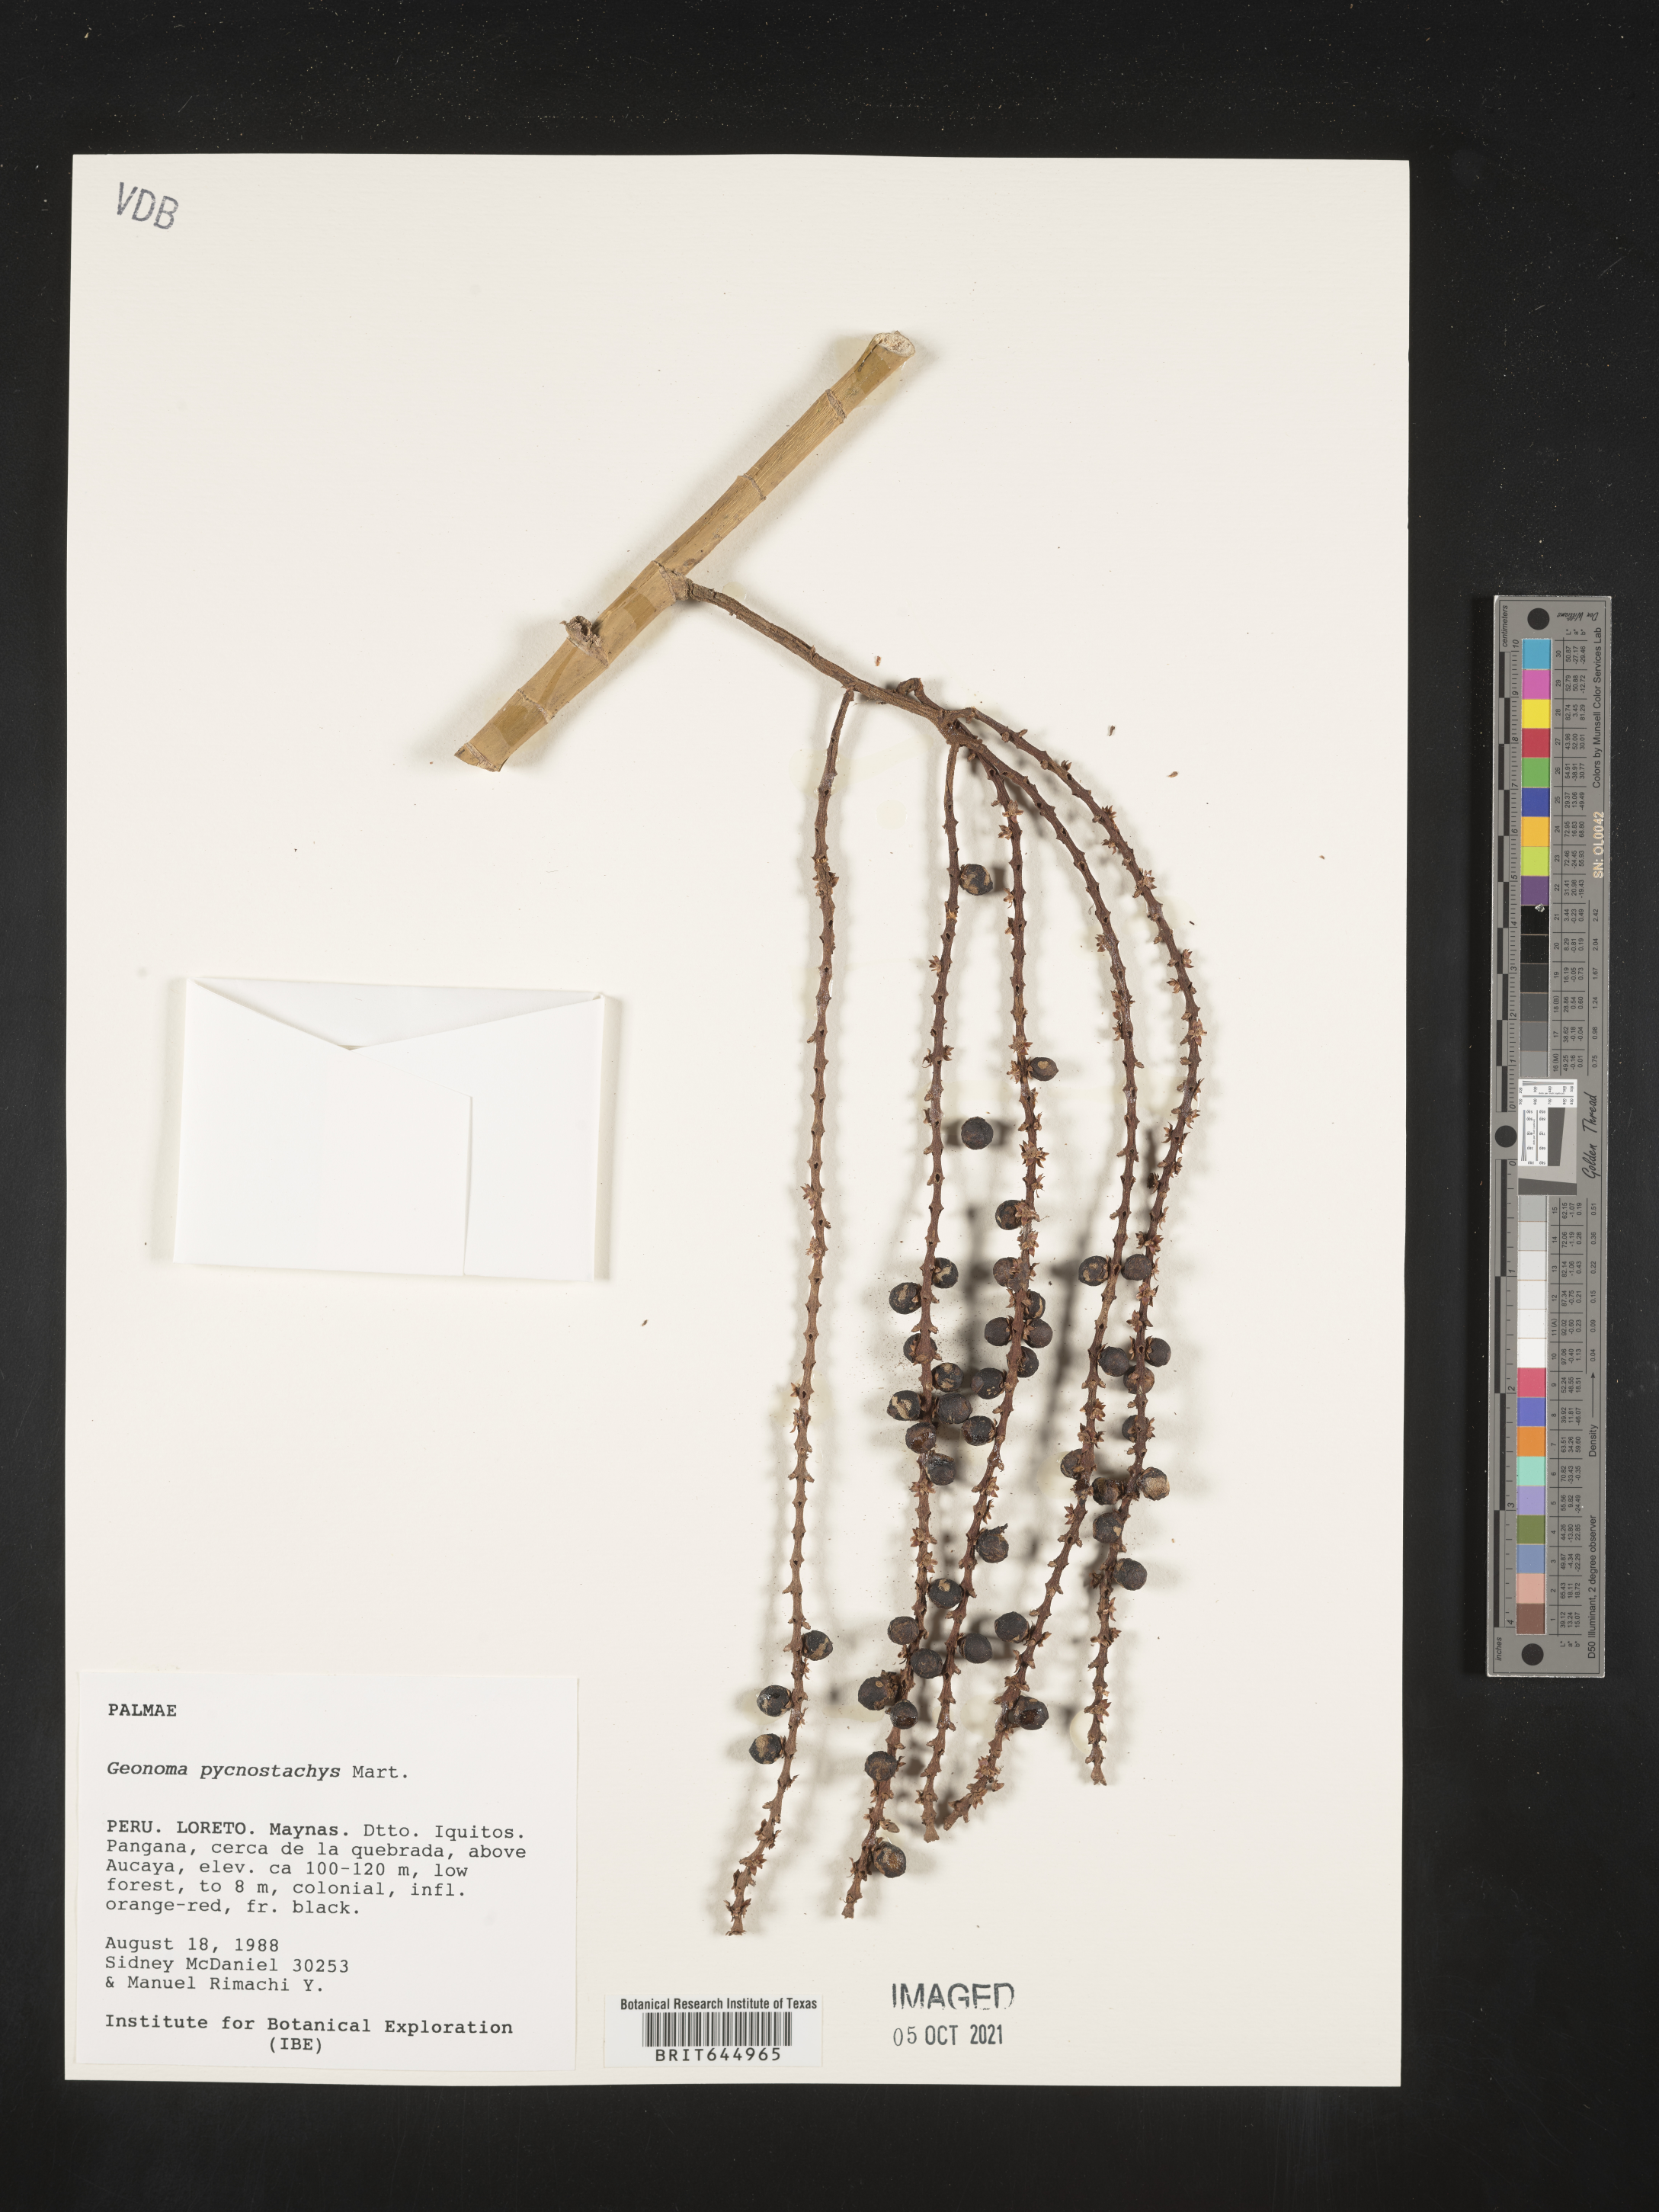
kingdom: Plantae
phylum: Tracheophyta
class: Liliopsida
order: Arecales
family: Arecaceae
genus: Geonoma
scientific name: Geonoma stricta
